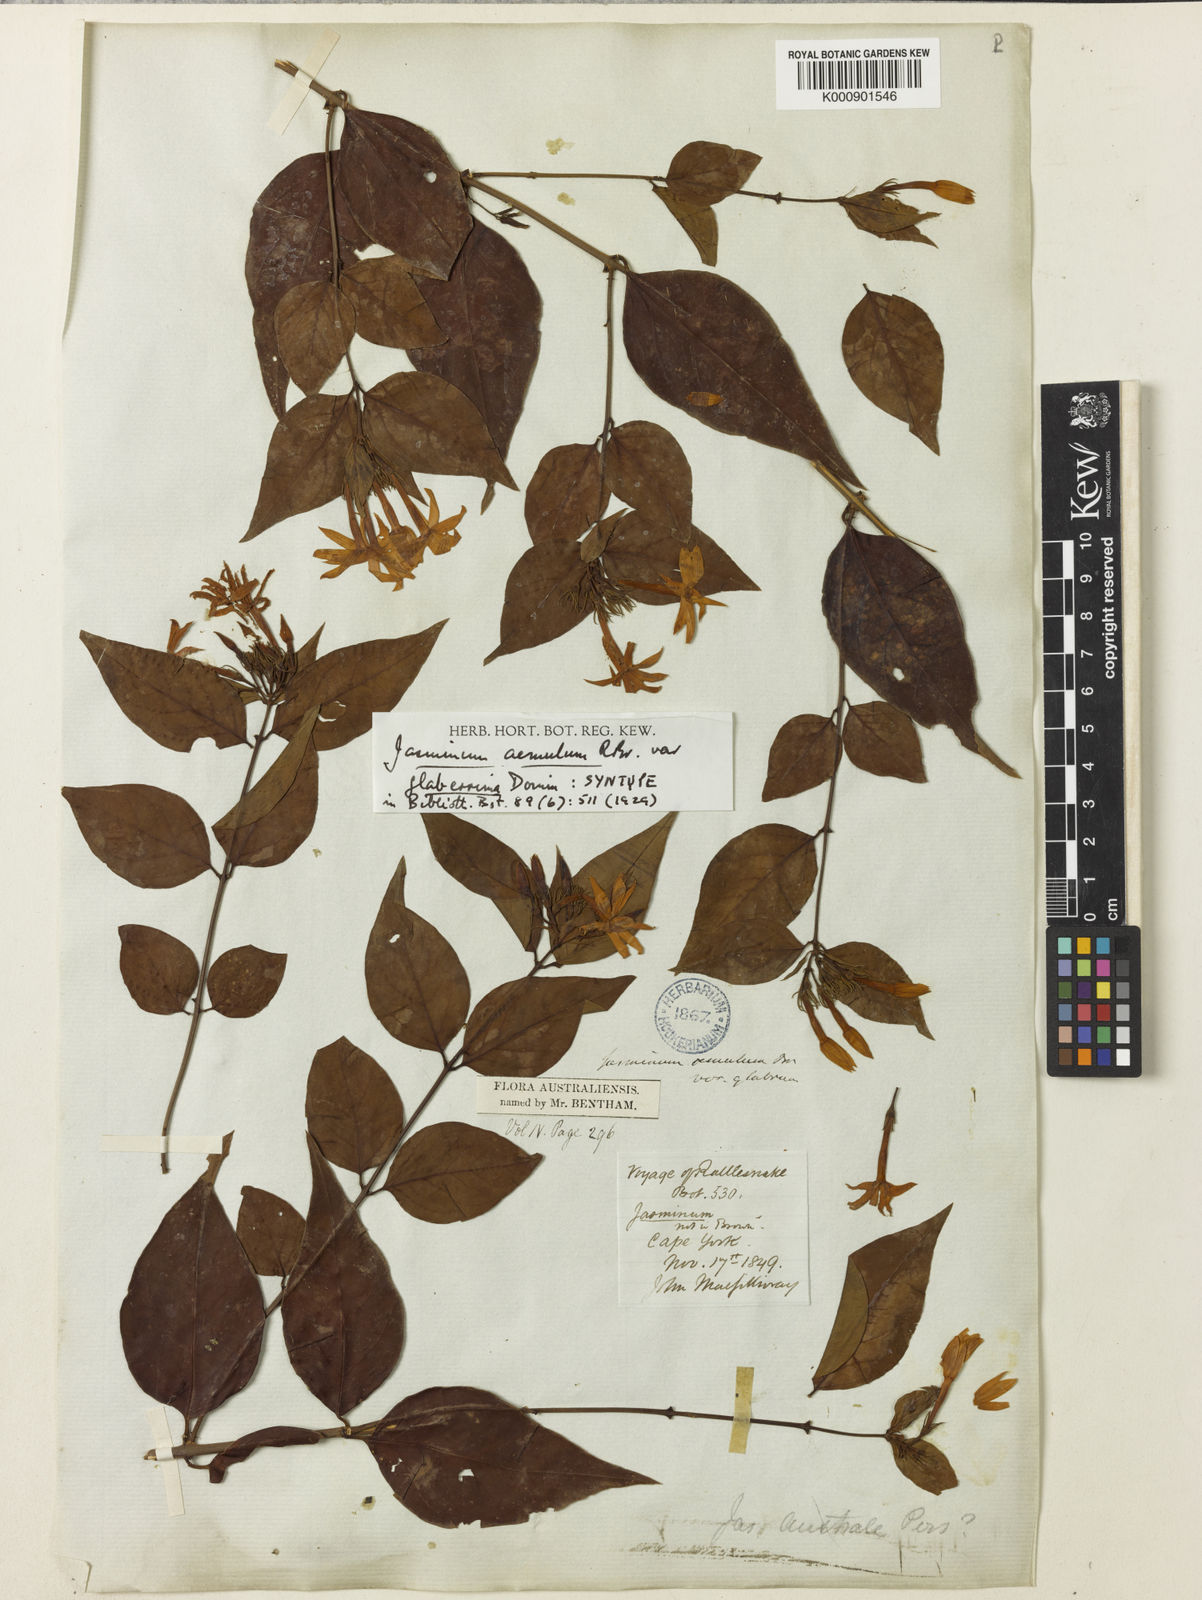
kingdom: Plantae
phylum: Tracheophyta
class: Magnoliopsida
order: Lamiales
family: Oleaceae
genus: Jasminum
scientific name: Jasminum
